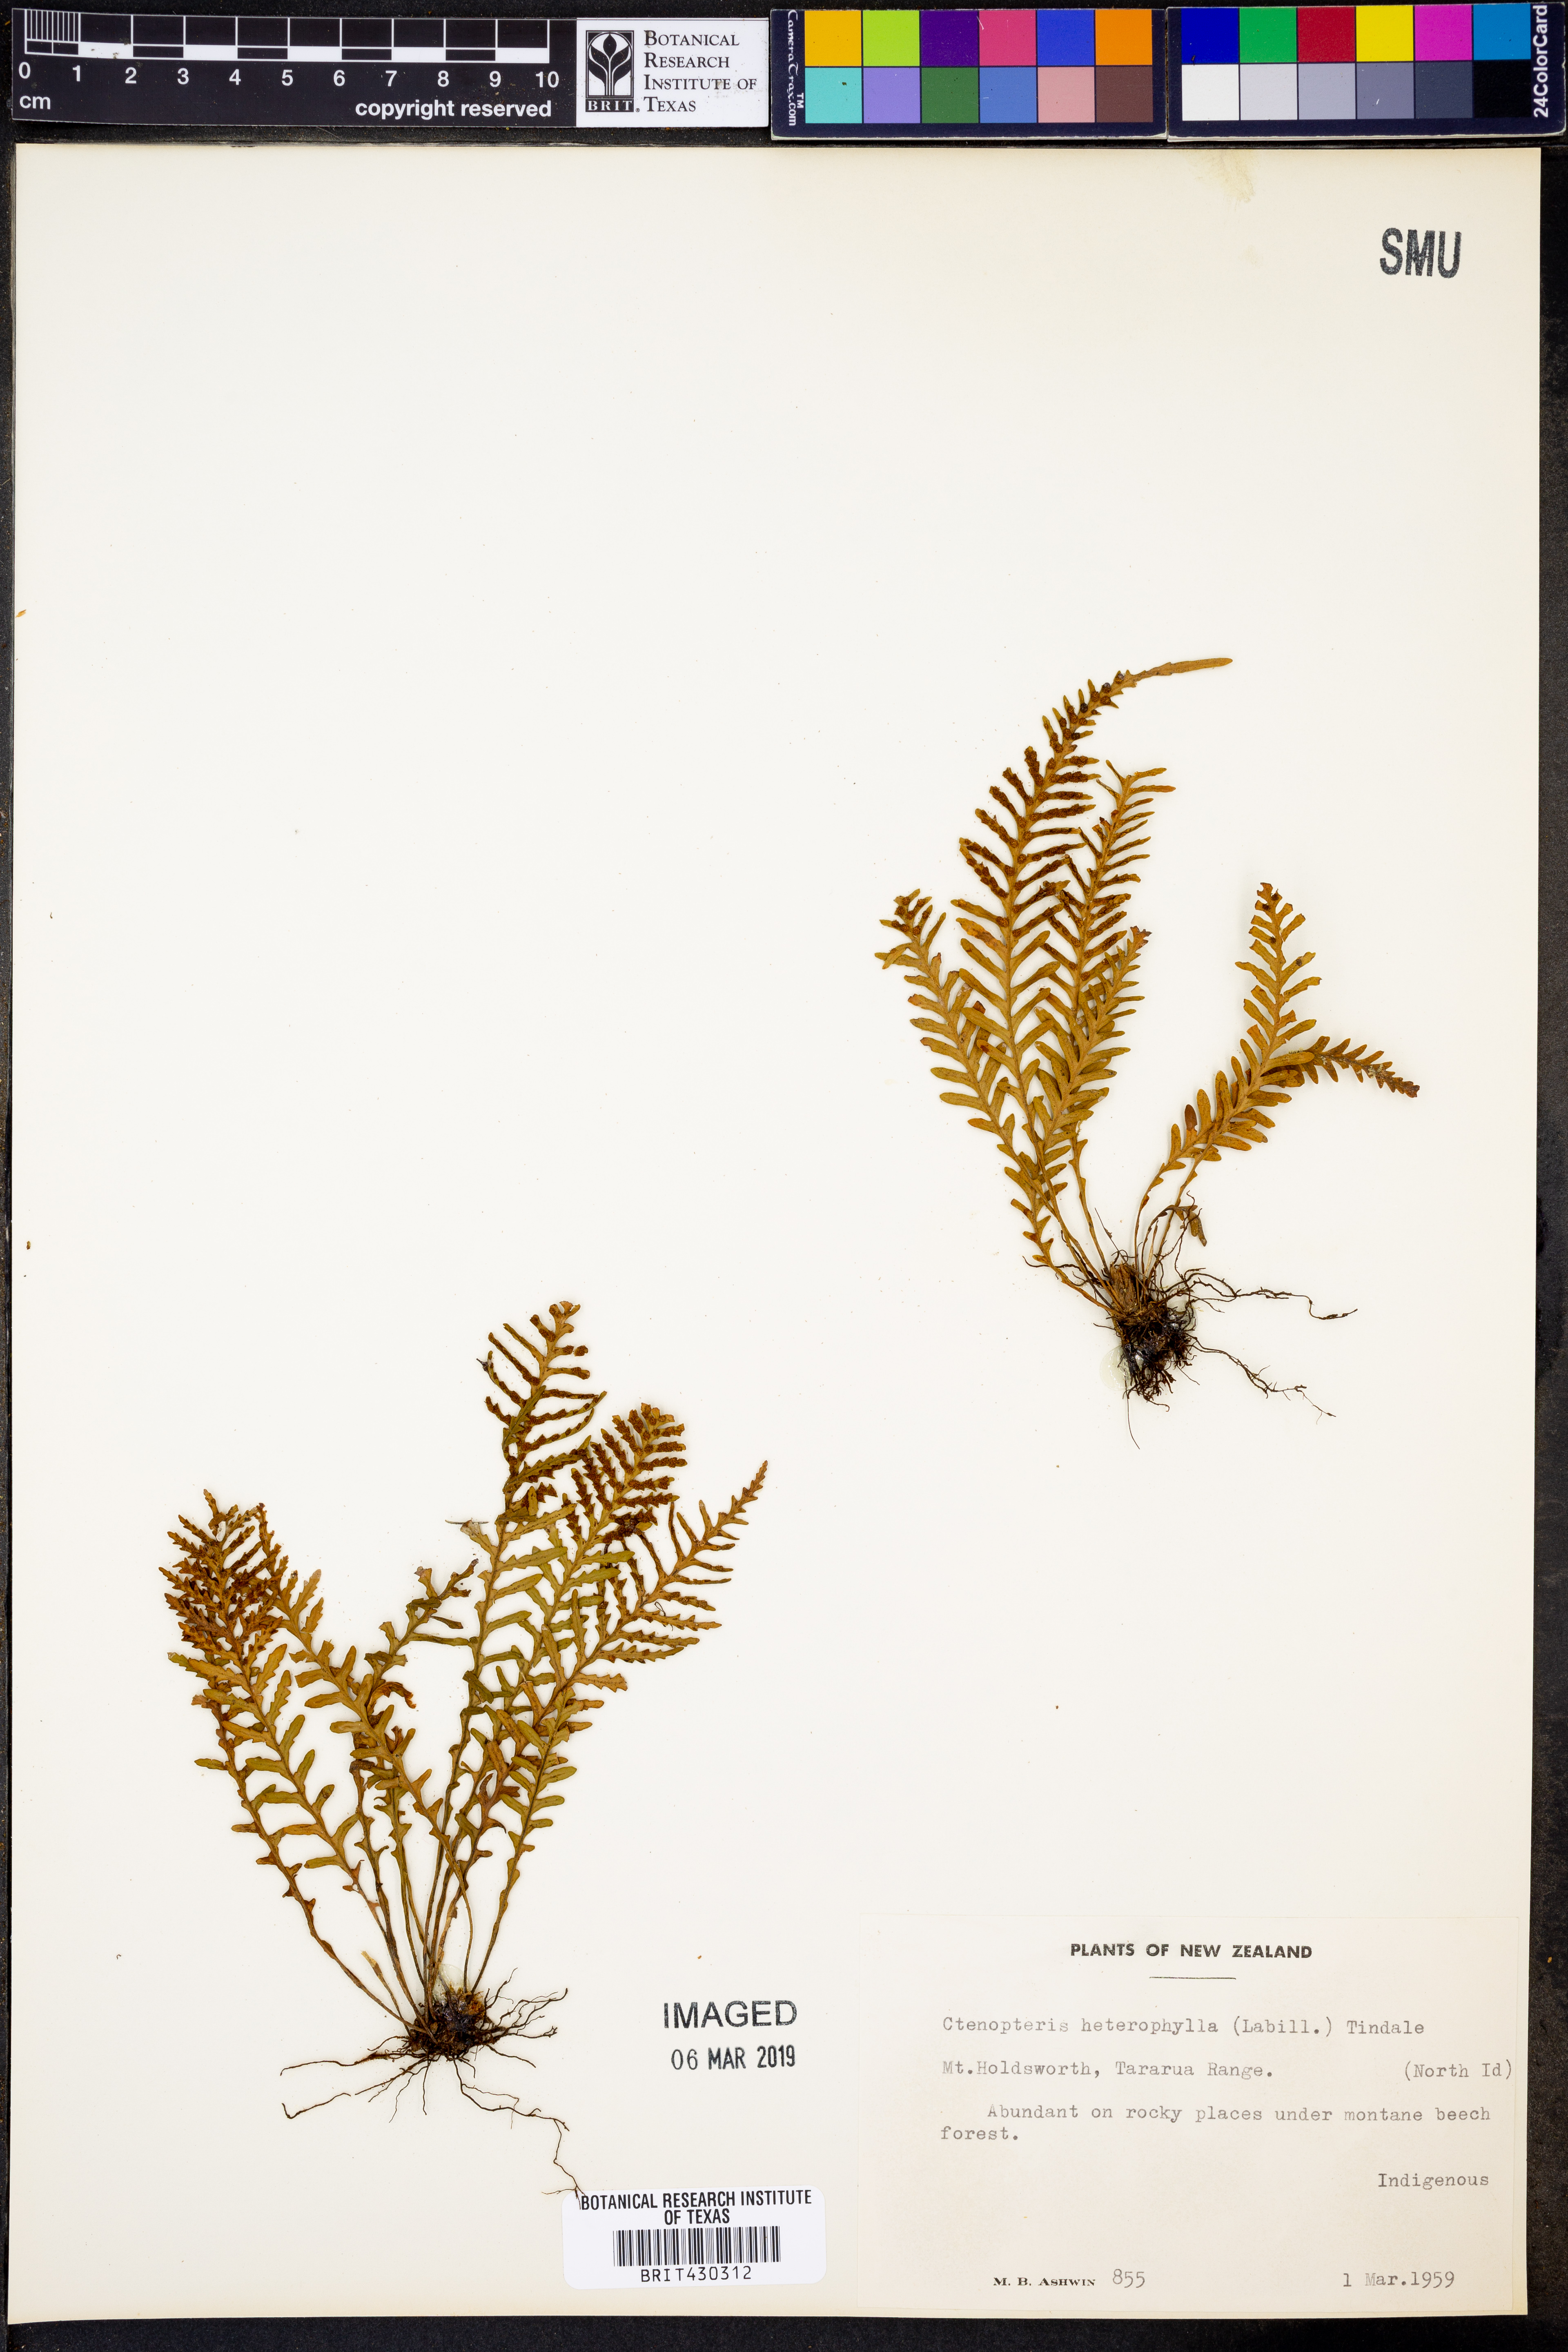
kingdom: Plantae
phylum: Tracheophyta
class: Polypodiopsida
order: Polypodiales
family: Polypodiaceae
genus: Notogrammitis
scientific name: Notogrammitis heterophylla
